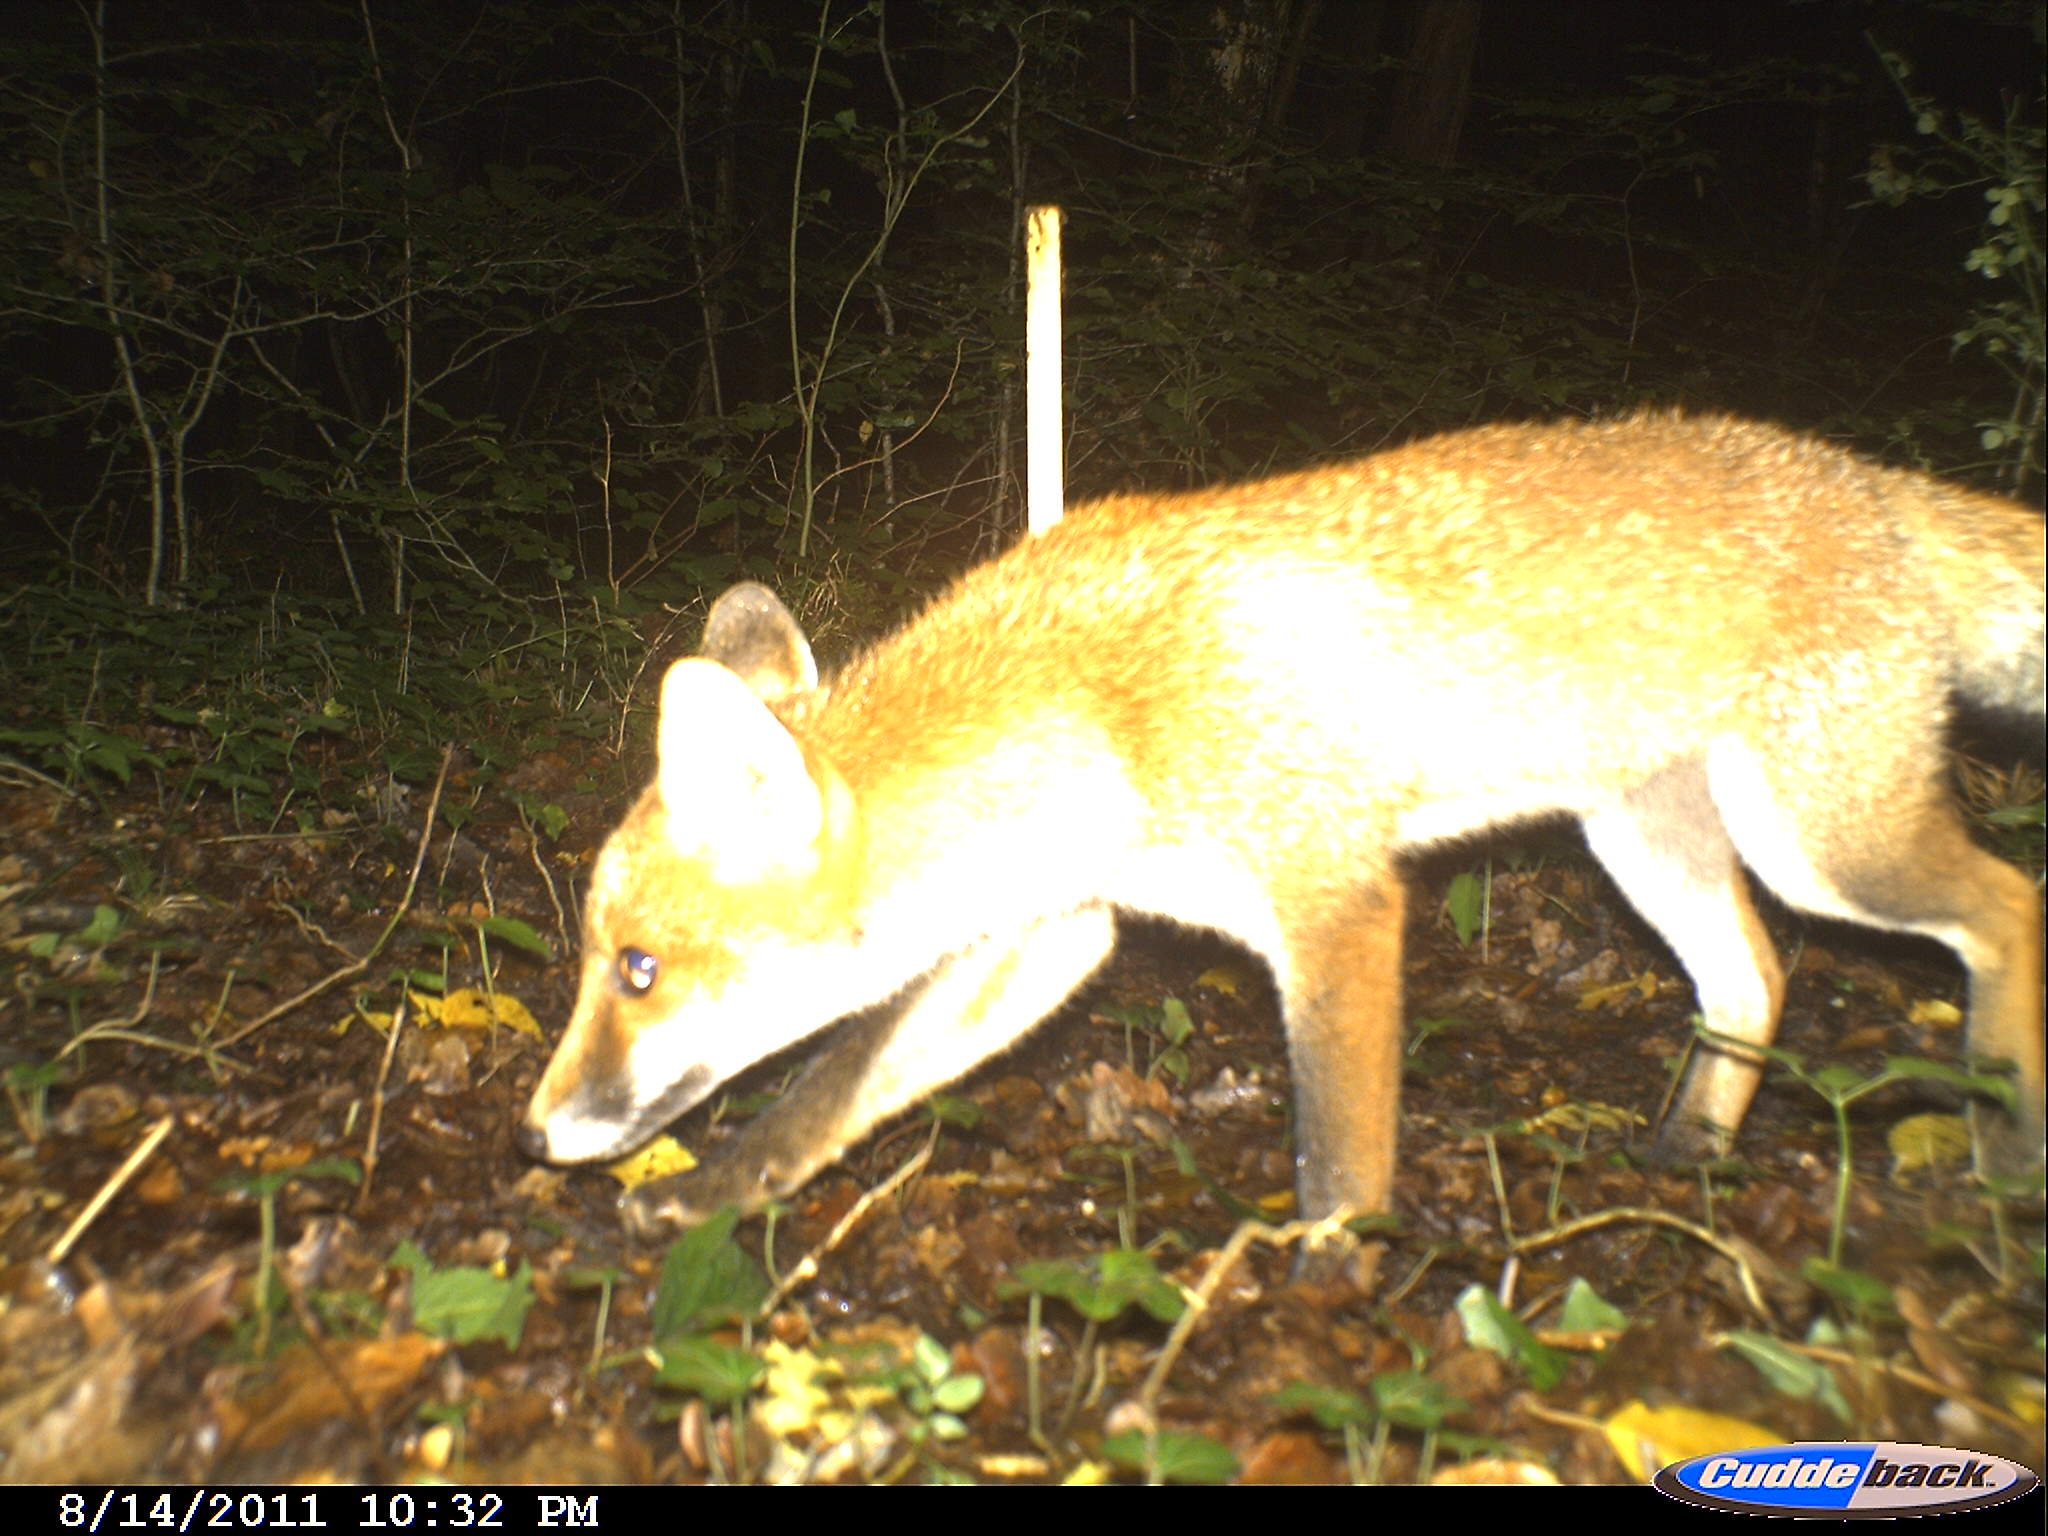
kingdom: Animalia
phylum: Chordata
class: Mammalia
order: Carnivora
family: Canidae
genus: Vulpes
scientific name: Vulpes vulpes
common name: Red fox
